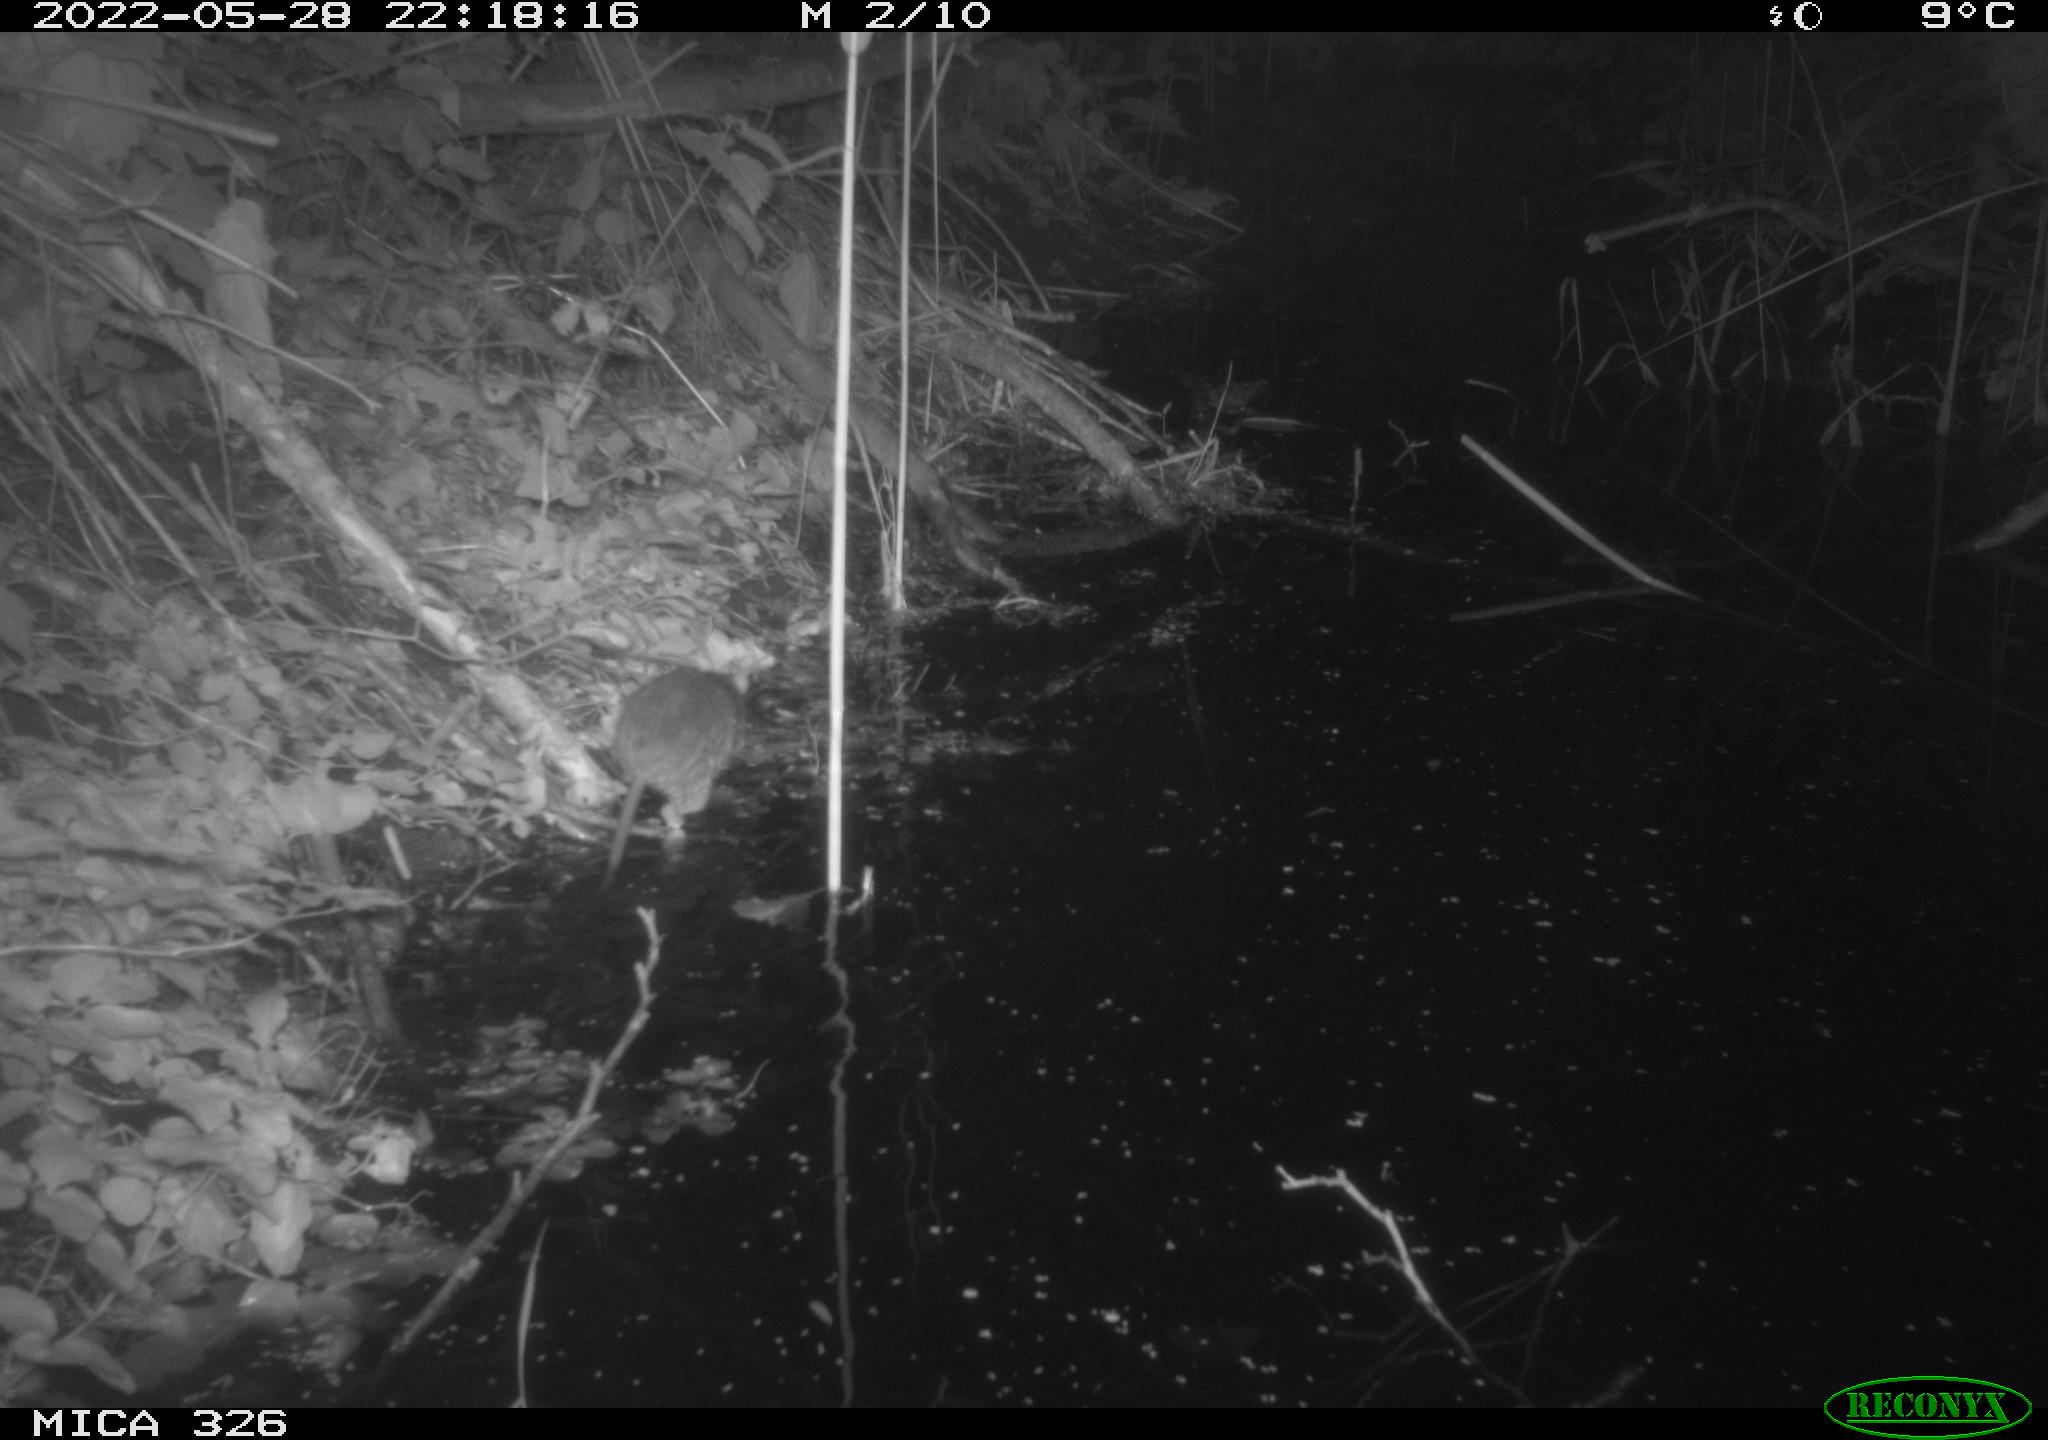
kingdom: Animalia
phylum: Chordata
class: Mammalia
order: Rodentia
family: Muridae
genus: Rattus
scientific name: Rattus norvegicus
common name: Brown rat
